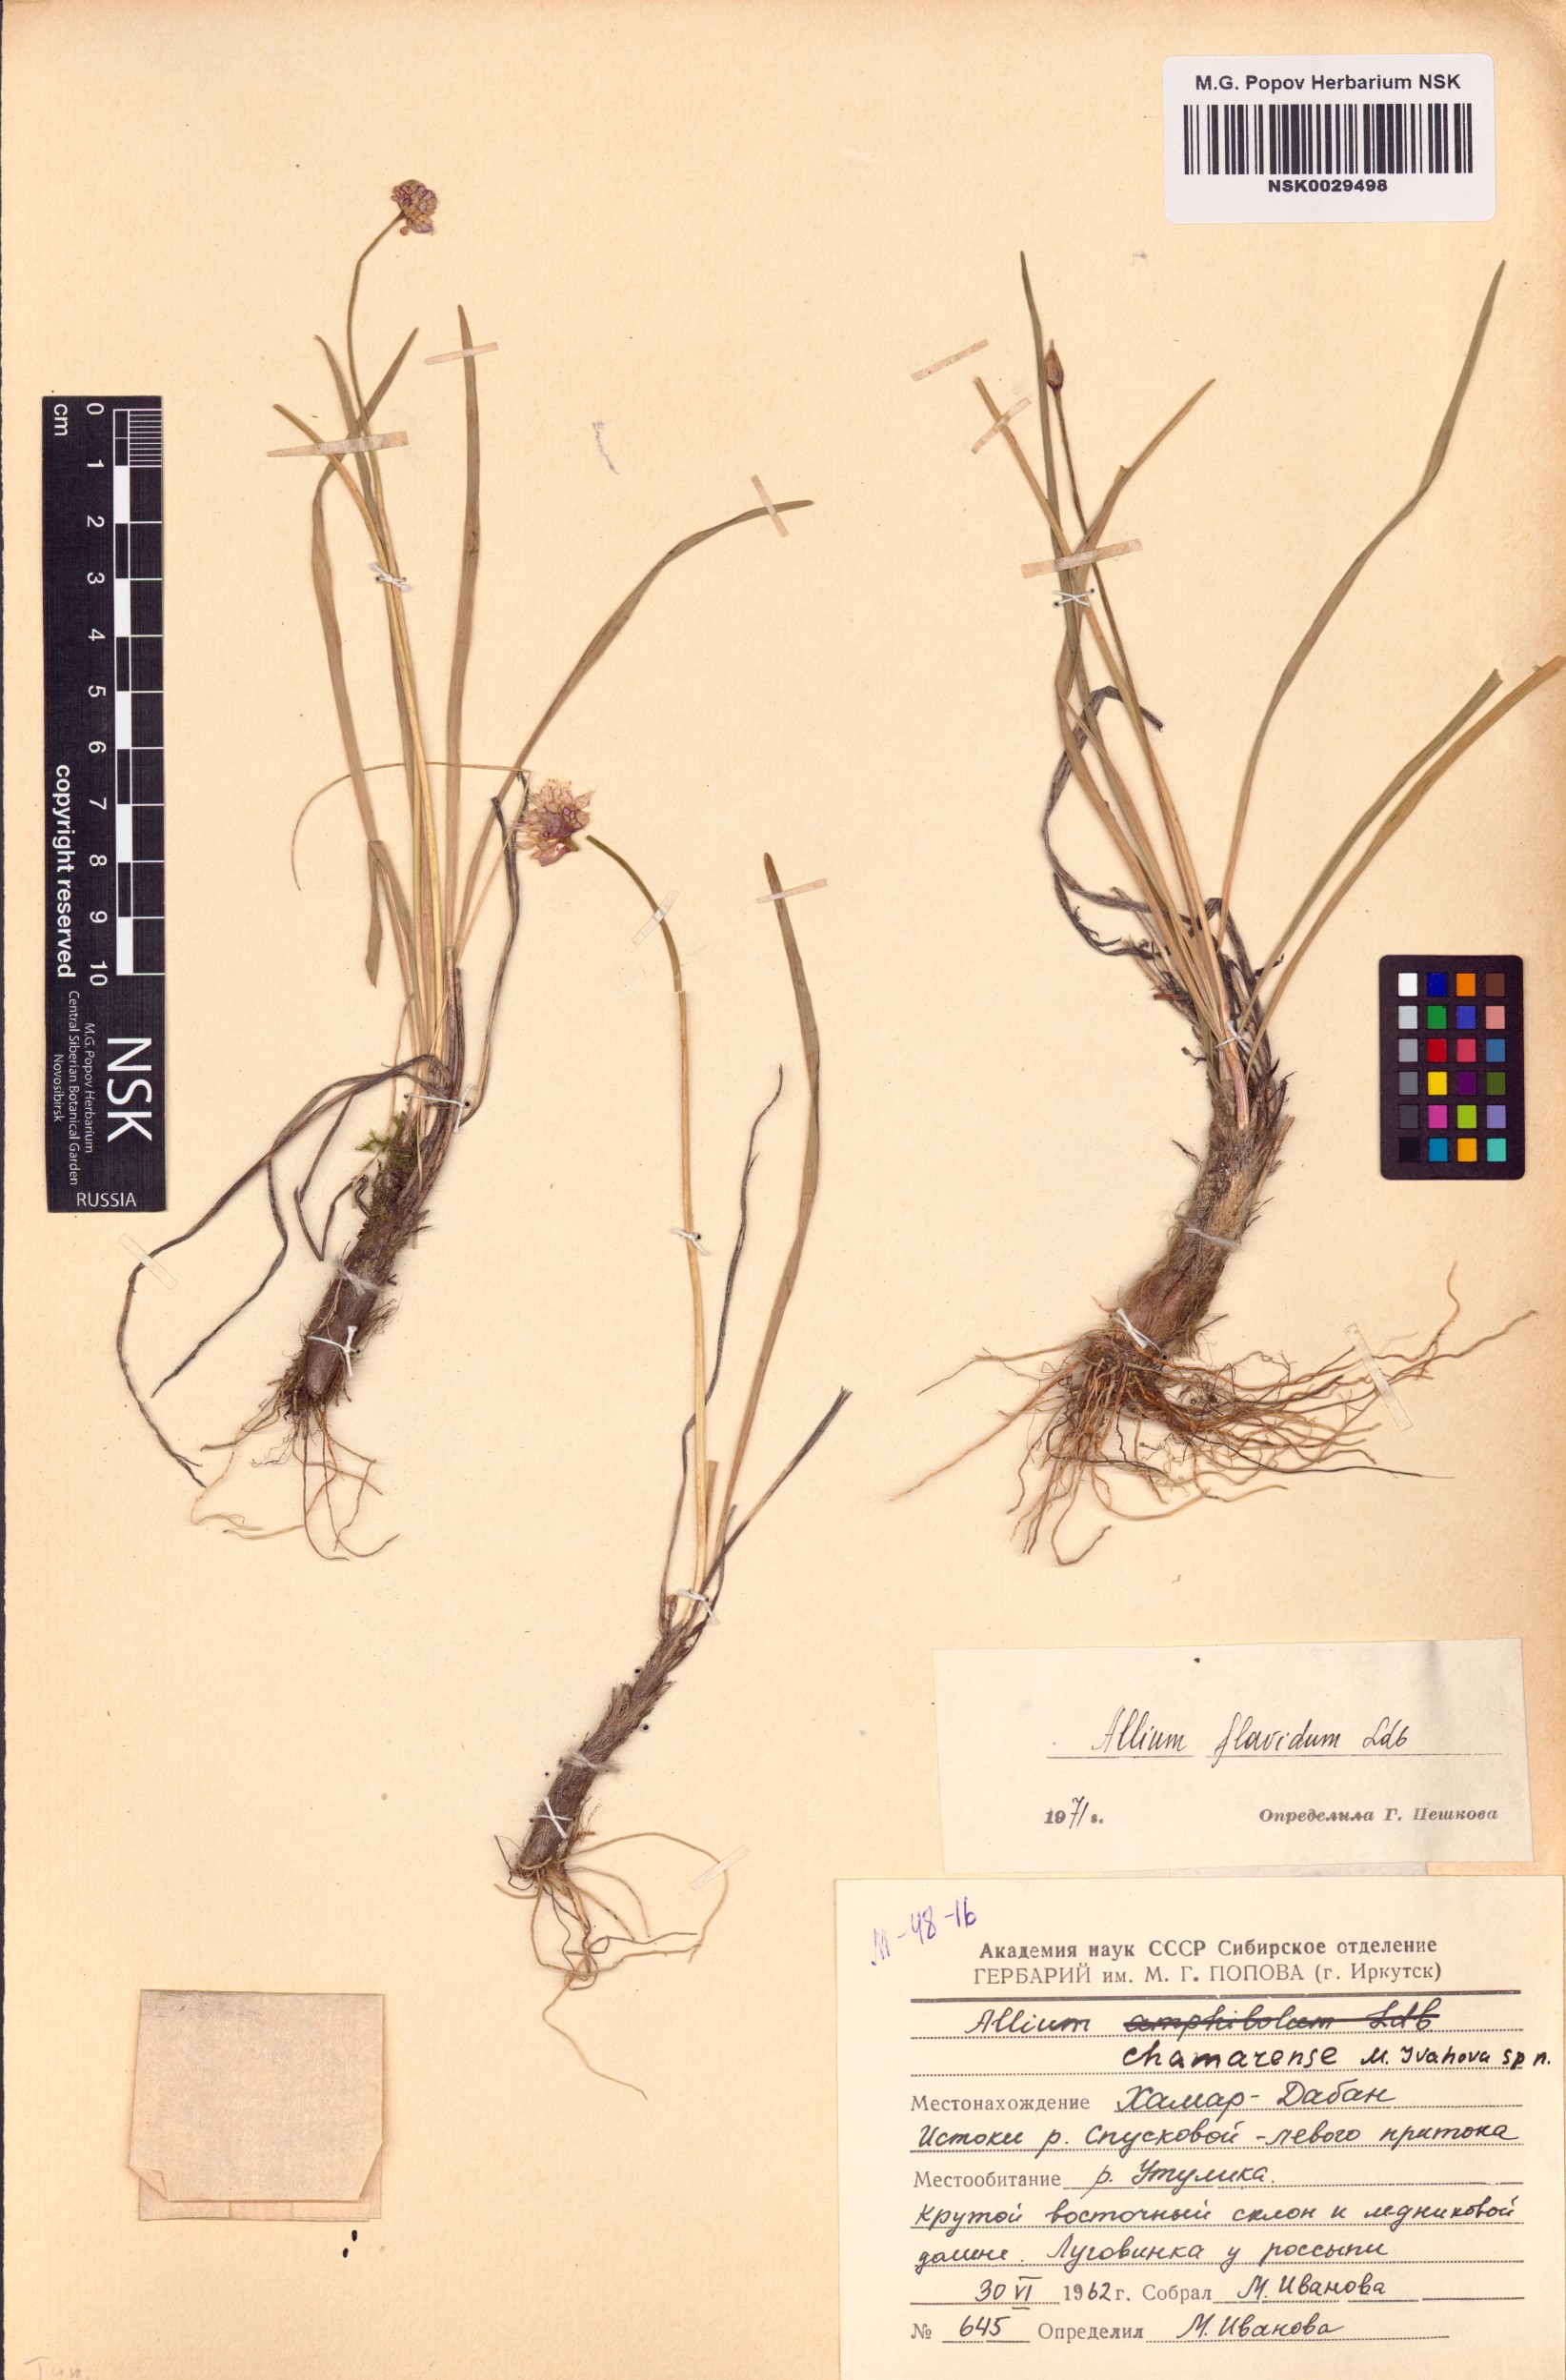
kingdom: Plantae
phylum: Tracheophyta
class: Liliopsida
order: Asparagales
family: Amaryllidaceae
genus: Allium
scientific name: Allium flavidum
